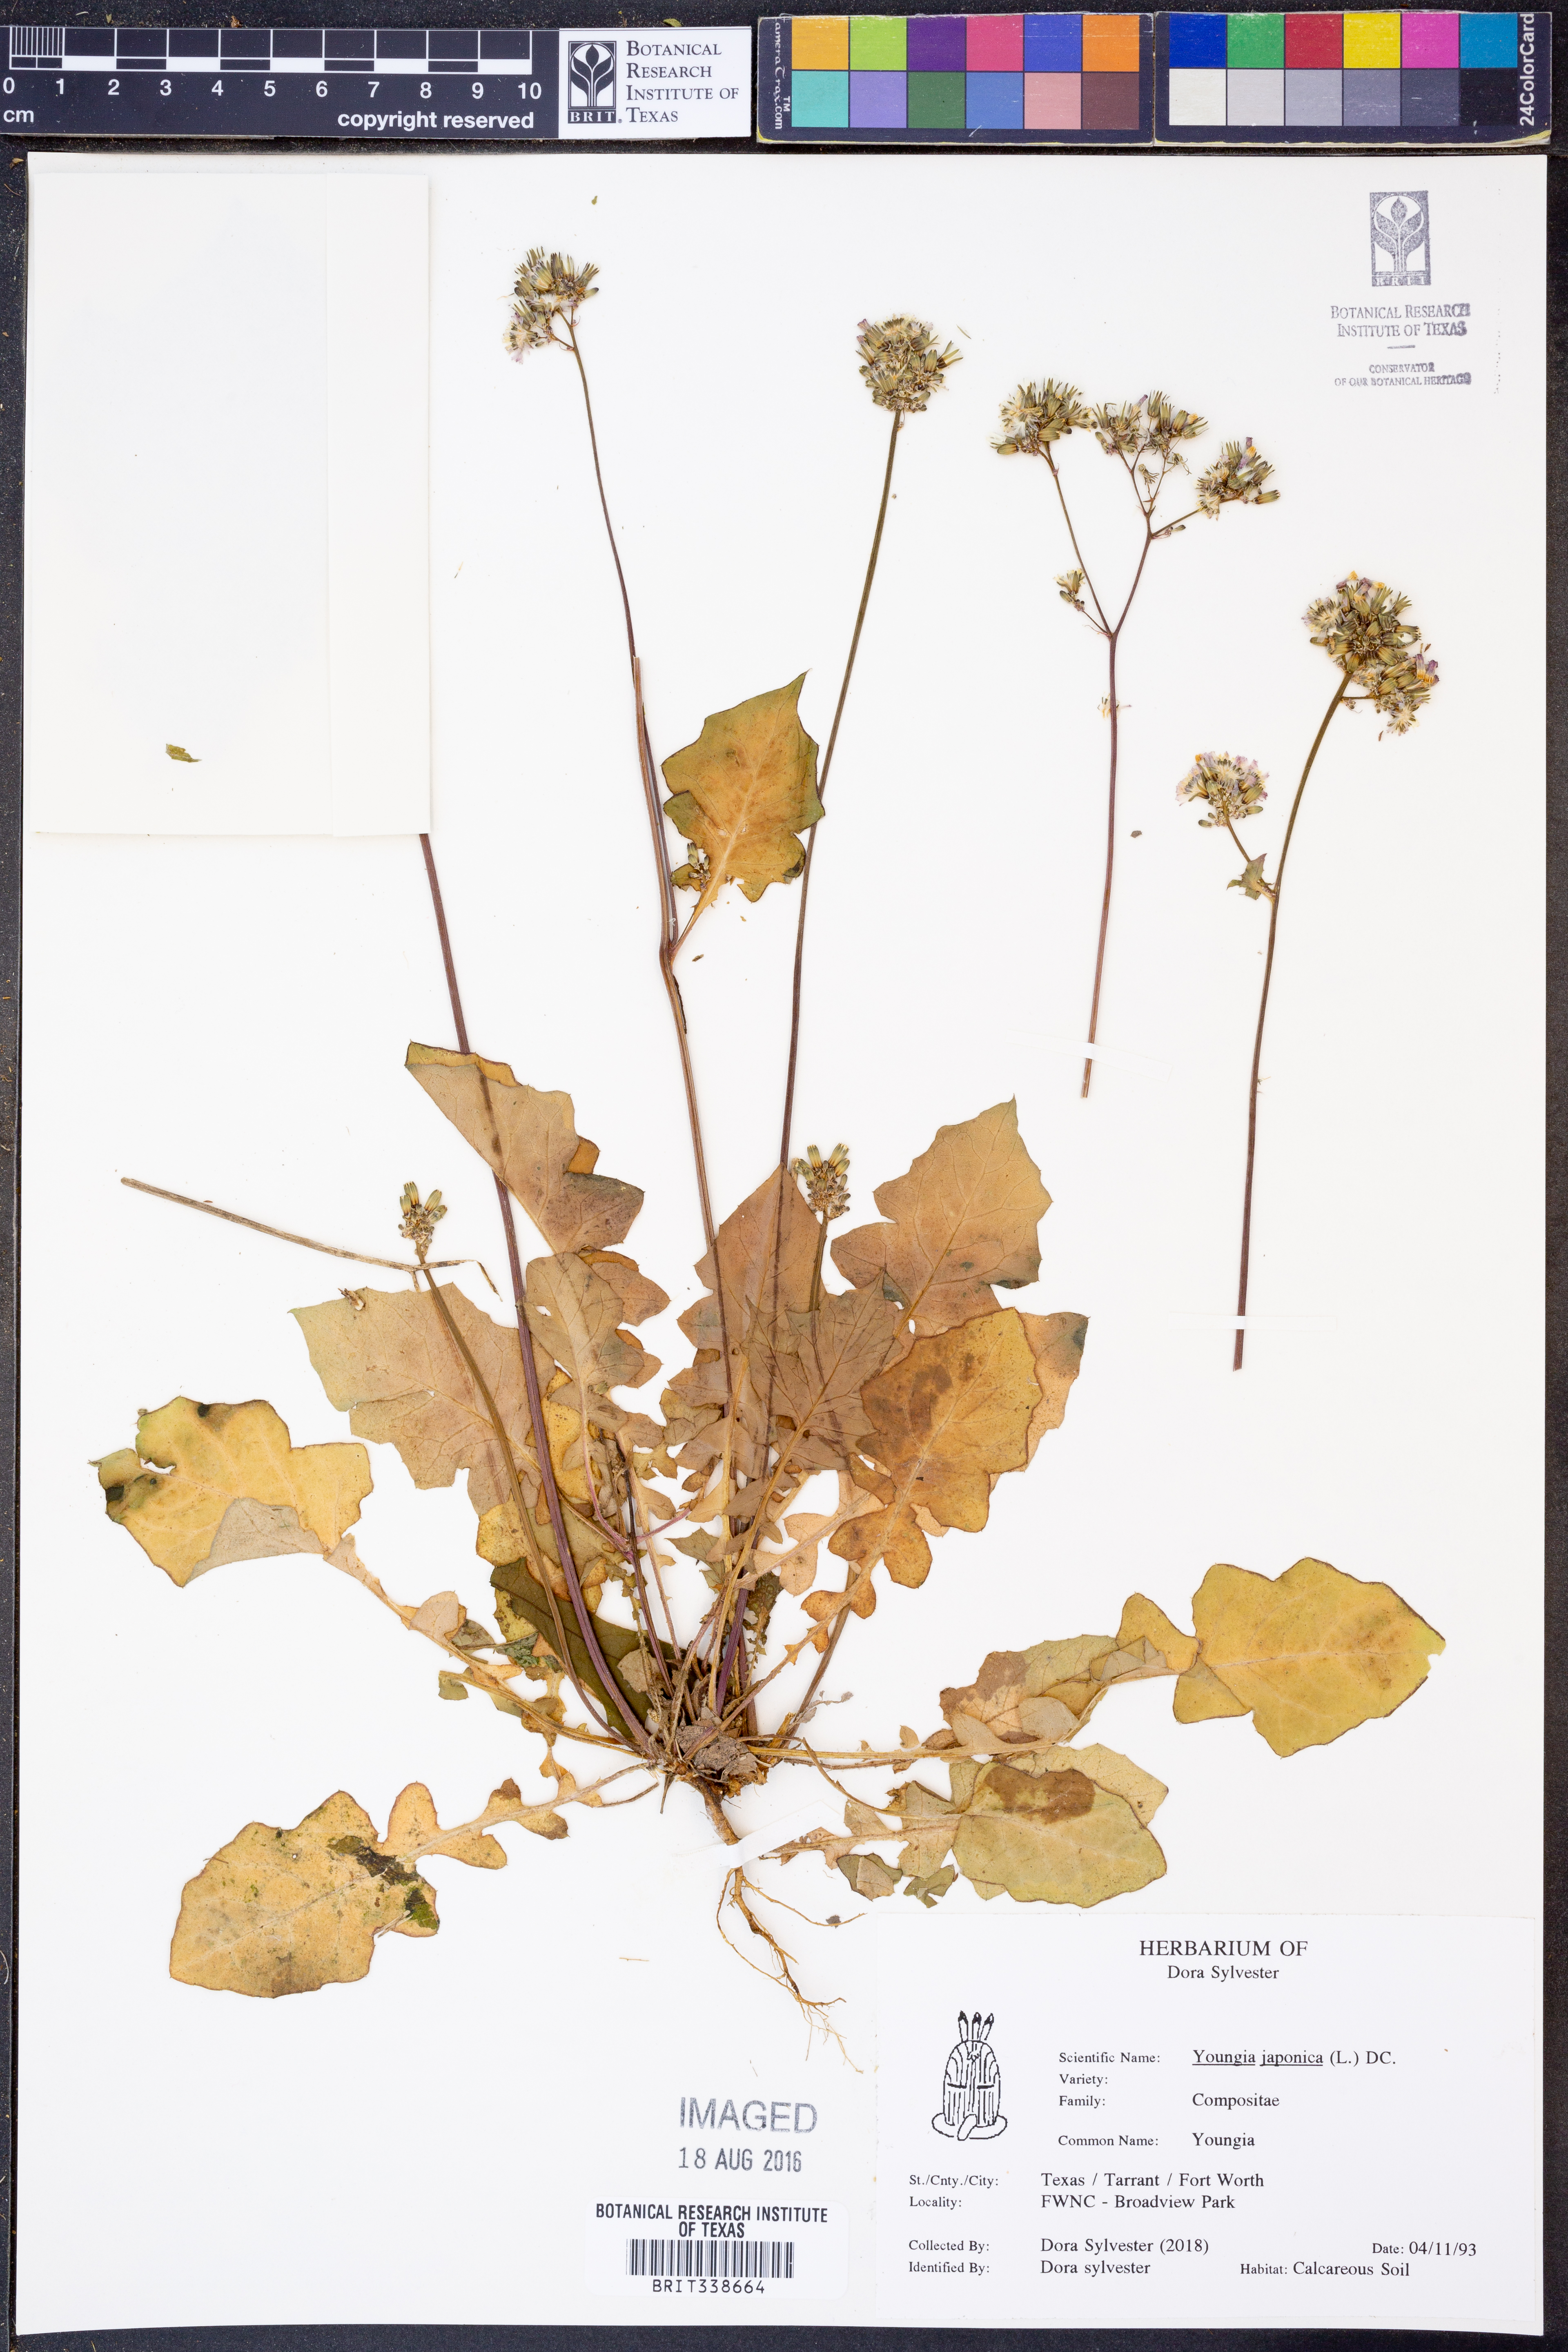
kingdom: Plantae
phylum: Tracheophyta
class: Magnoliopsida
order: Asterales
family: Asteraceae
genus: Youngia
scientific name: Youngia japonica
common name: Oriental false hawksbeard
